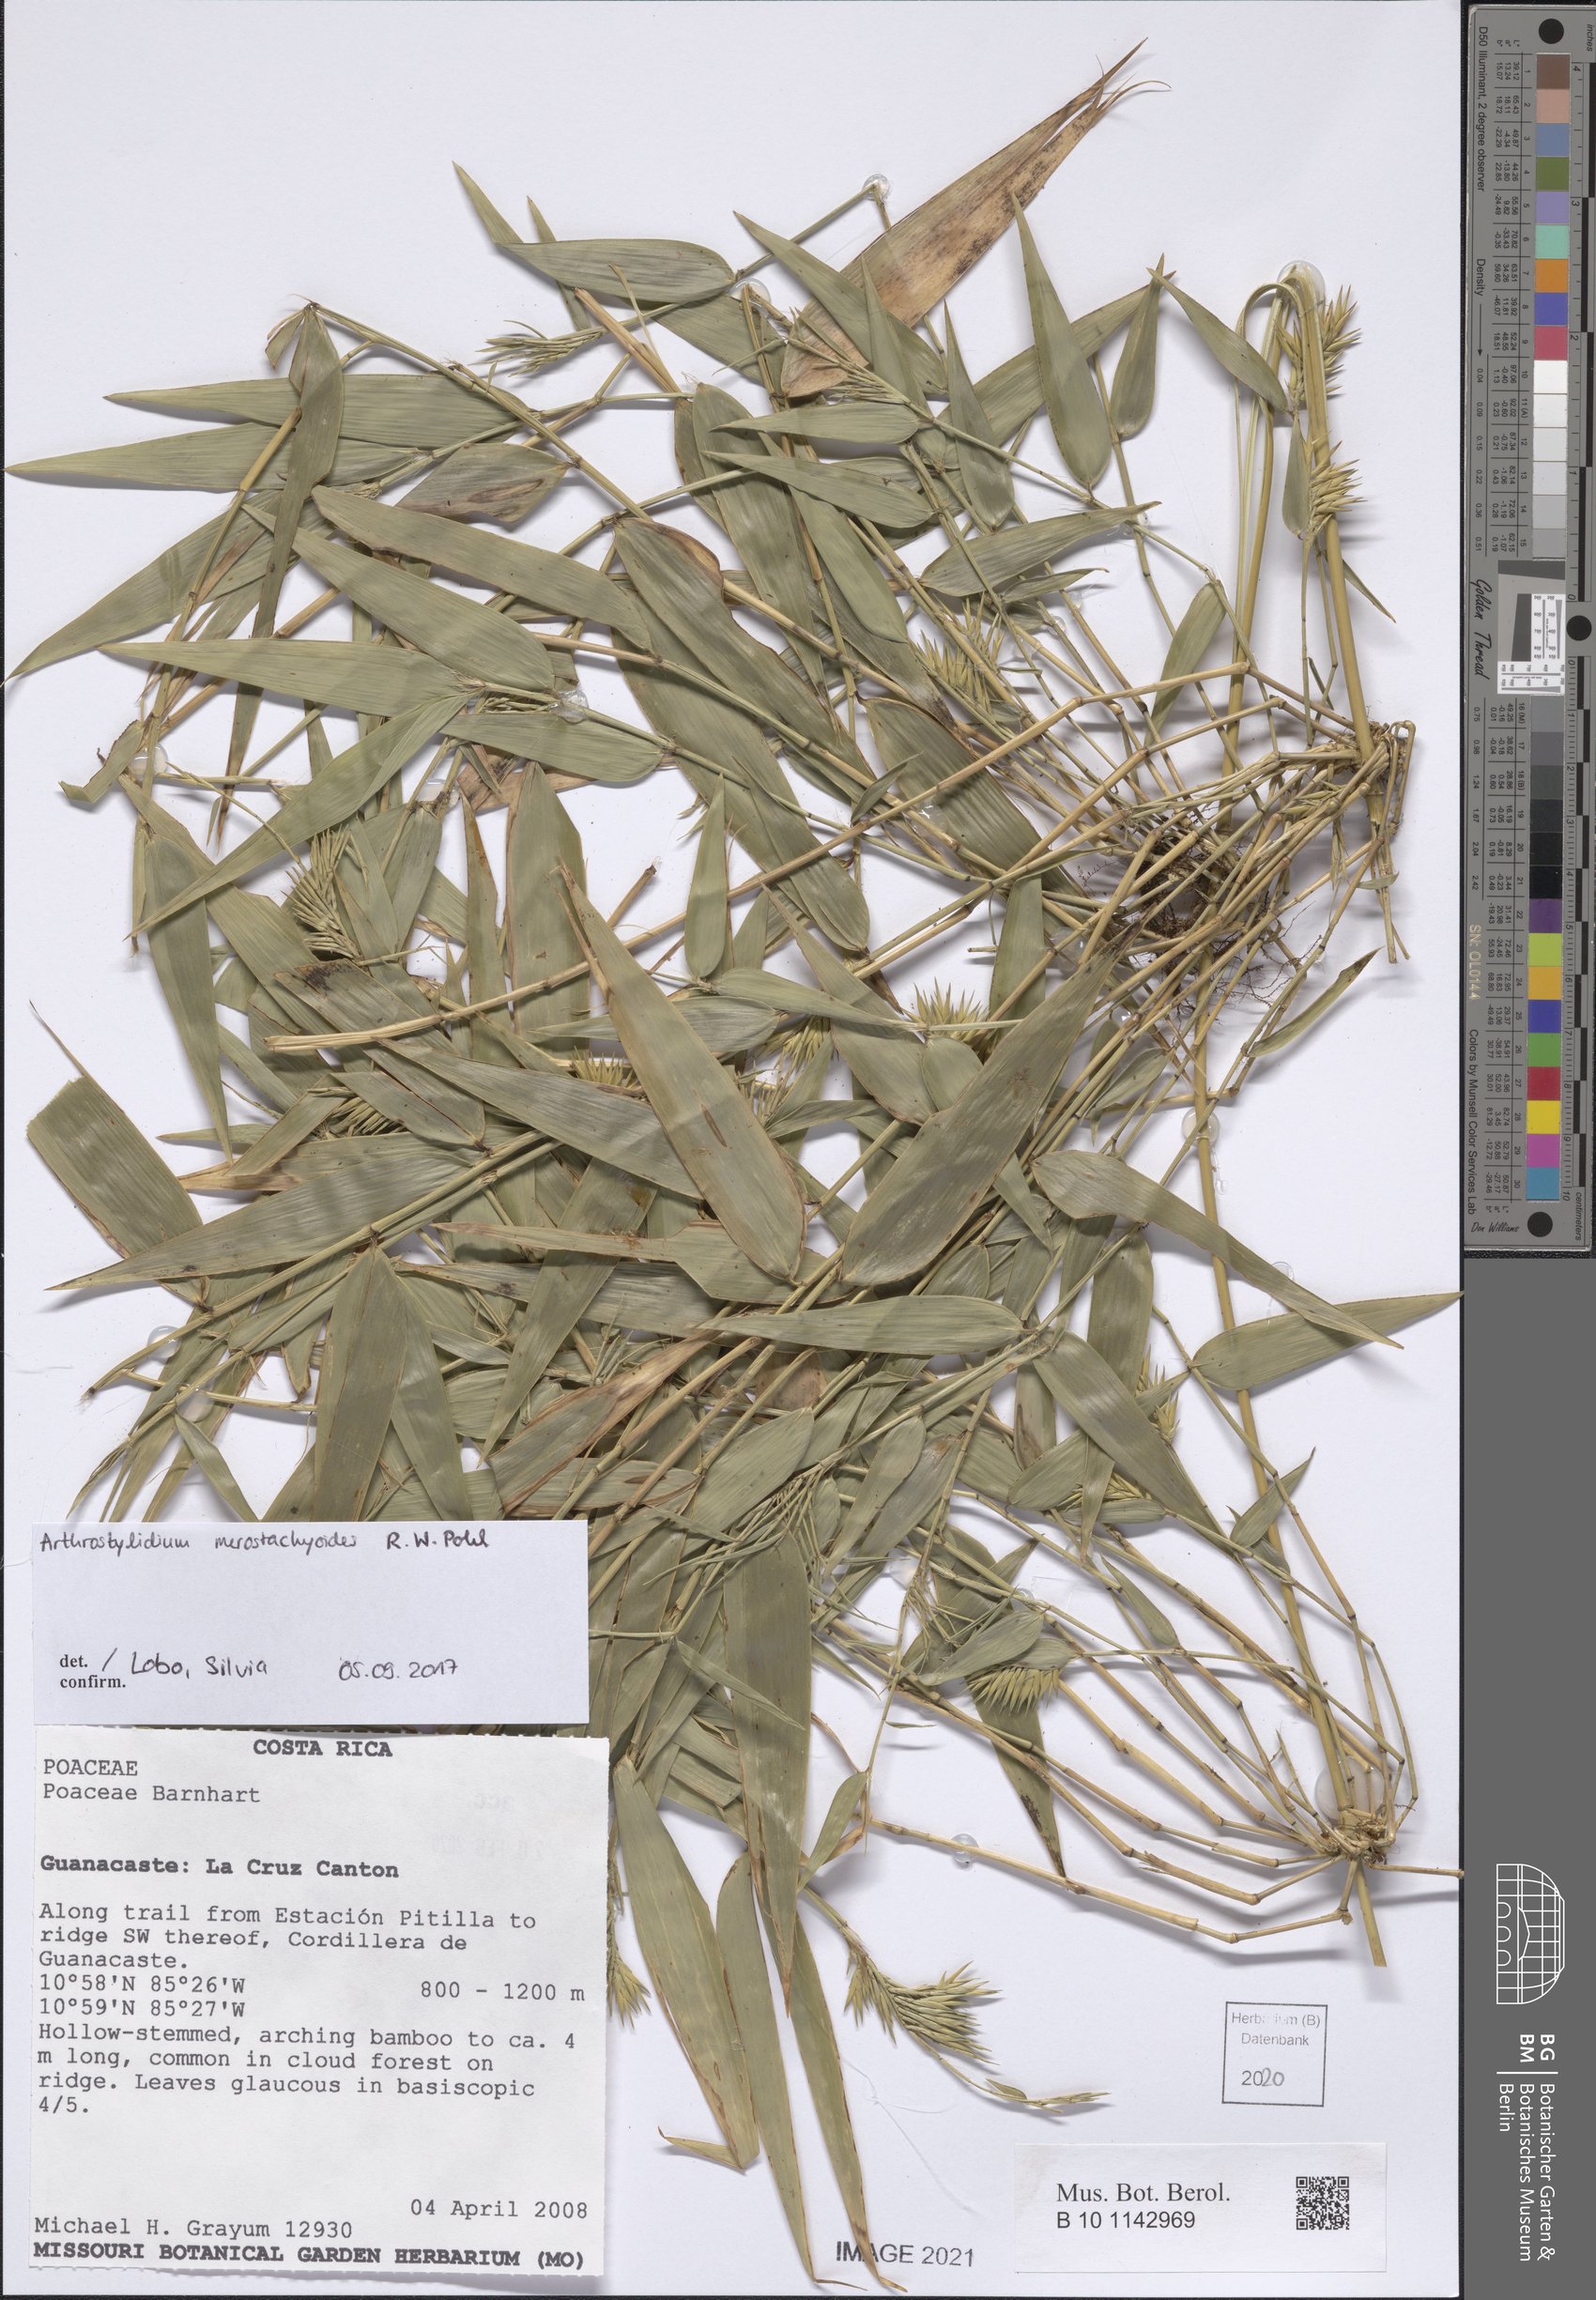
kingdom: Plantae
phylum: Tracheophyta
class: Liliopsida
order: Poales
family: Poaceae
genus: Arthrostylidium
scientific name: Arthrostylidium merostachyoides
